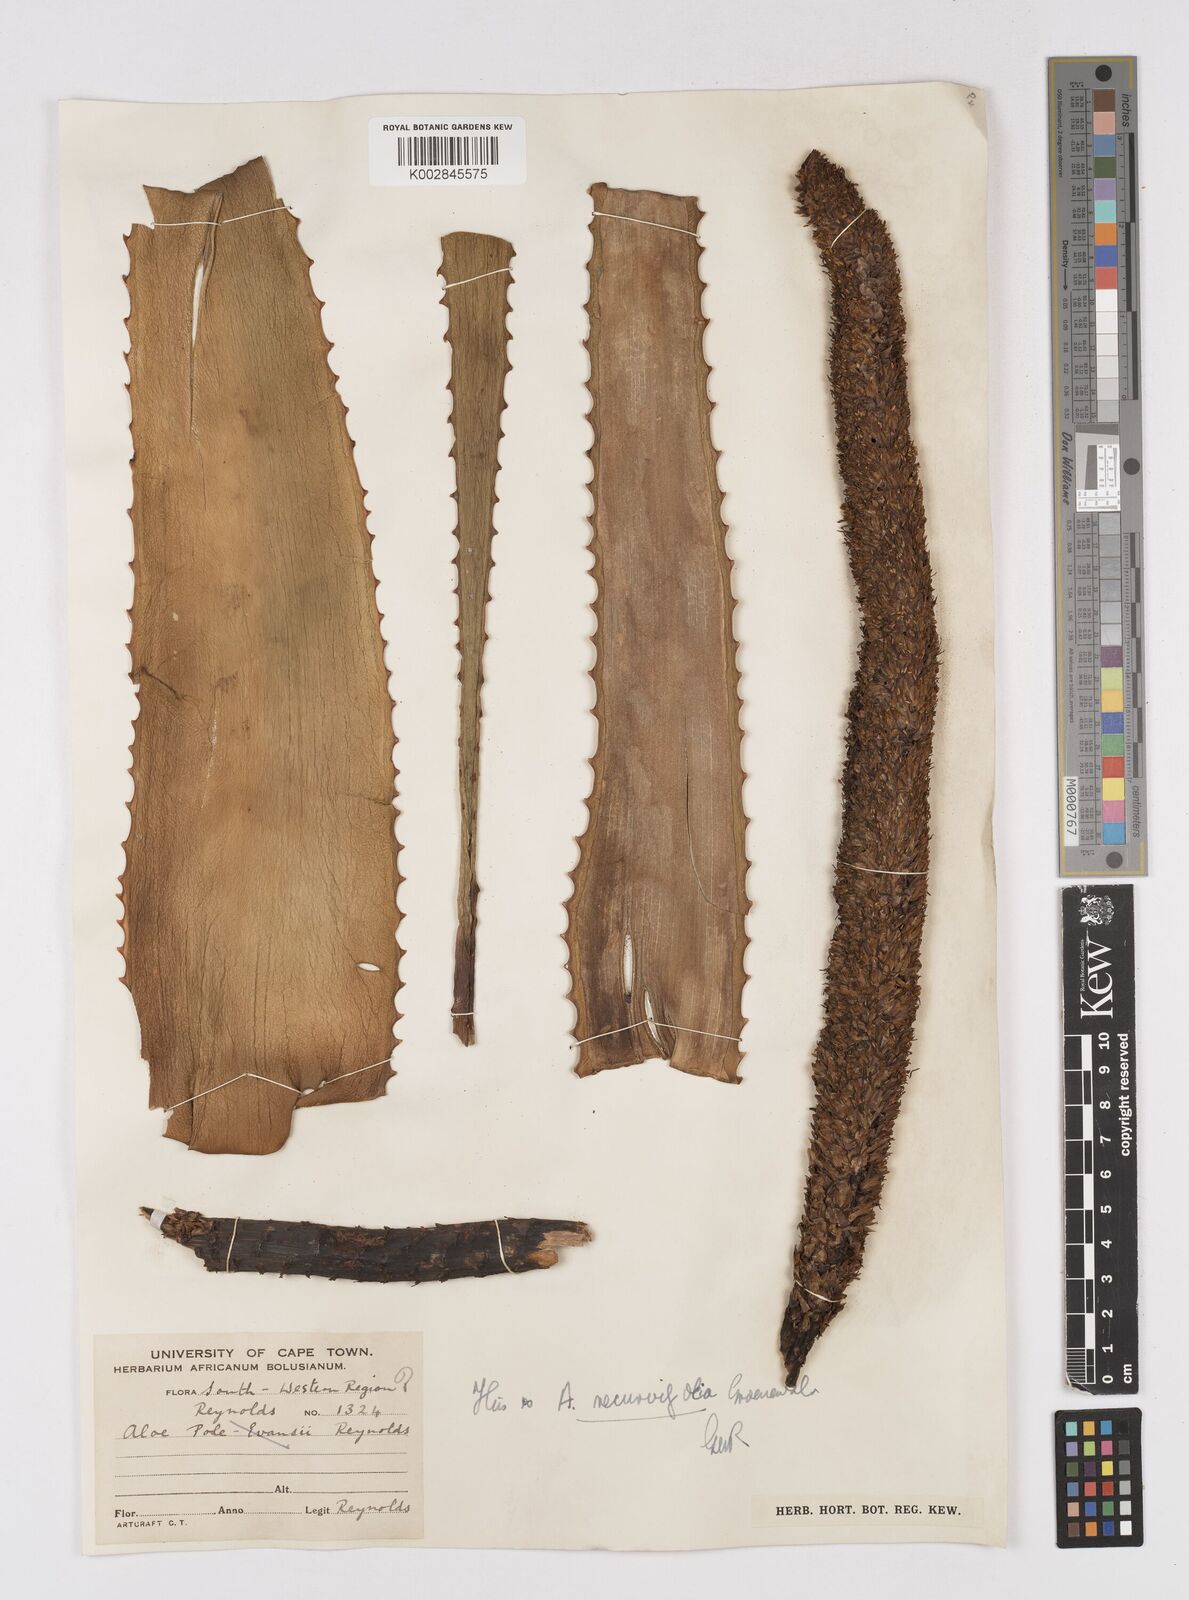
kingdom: Plantae
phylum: Tracheophyta
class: Liliopsida
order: Asparagales
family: Asphodelaceae
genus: Aloe
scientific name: Aloe alooides
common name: Graskop aloe
